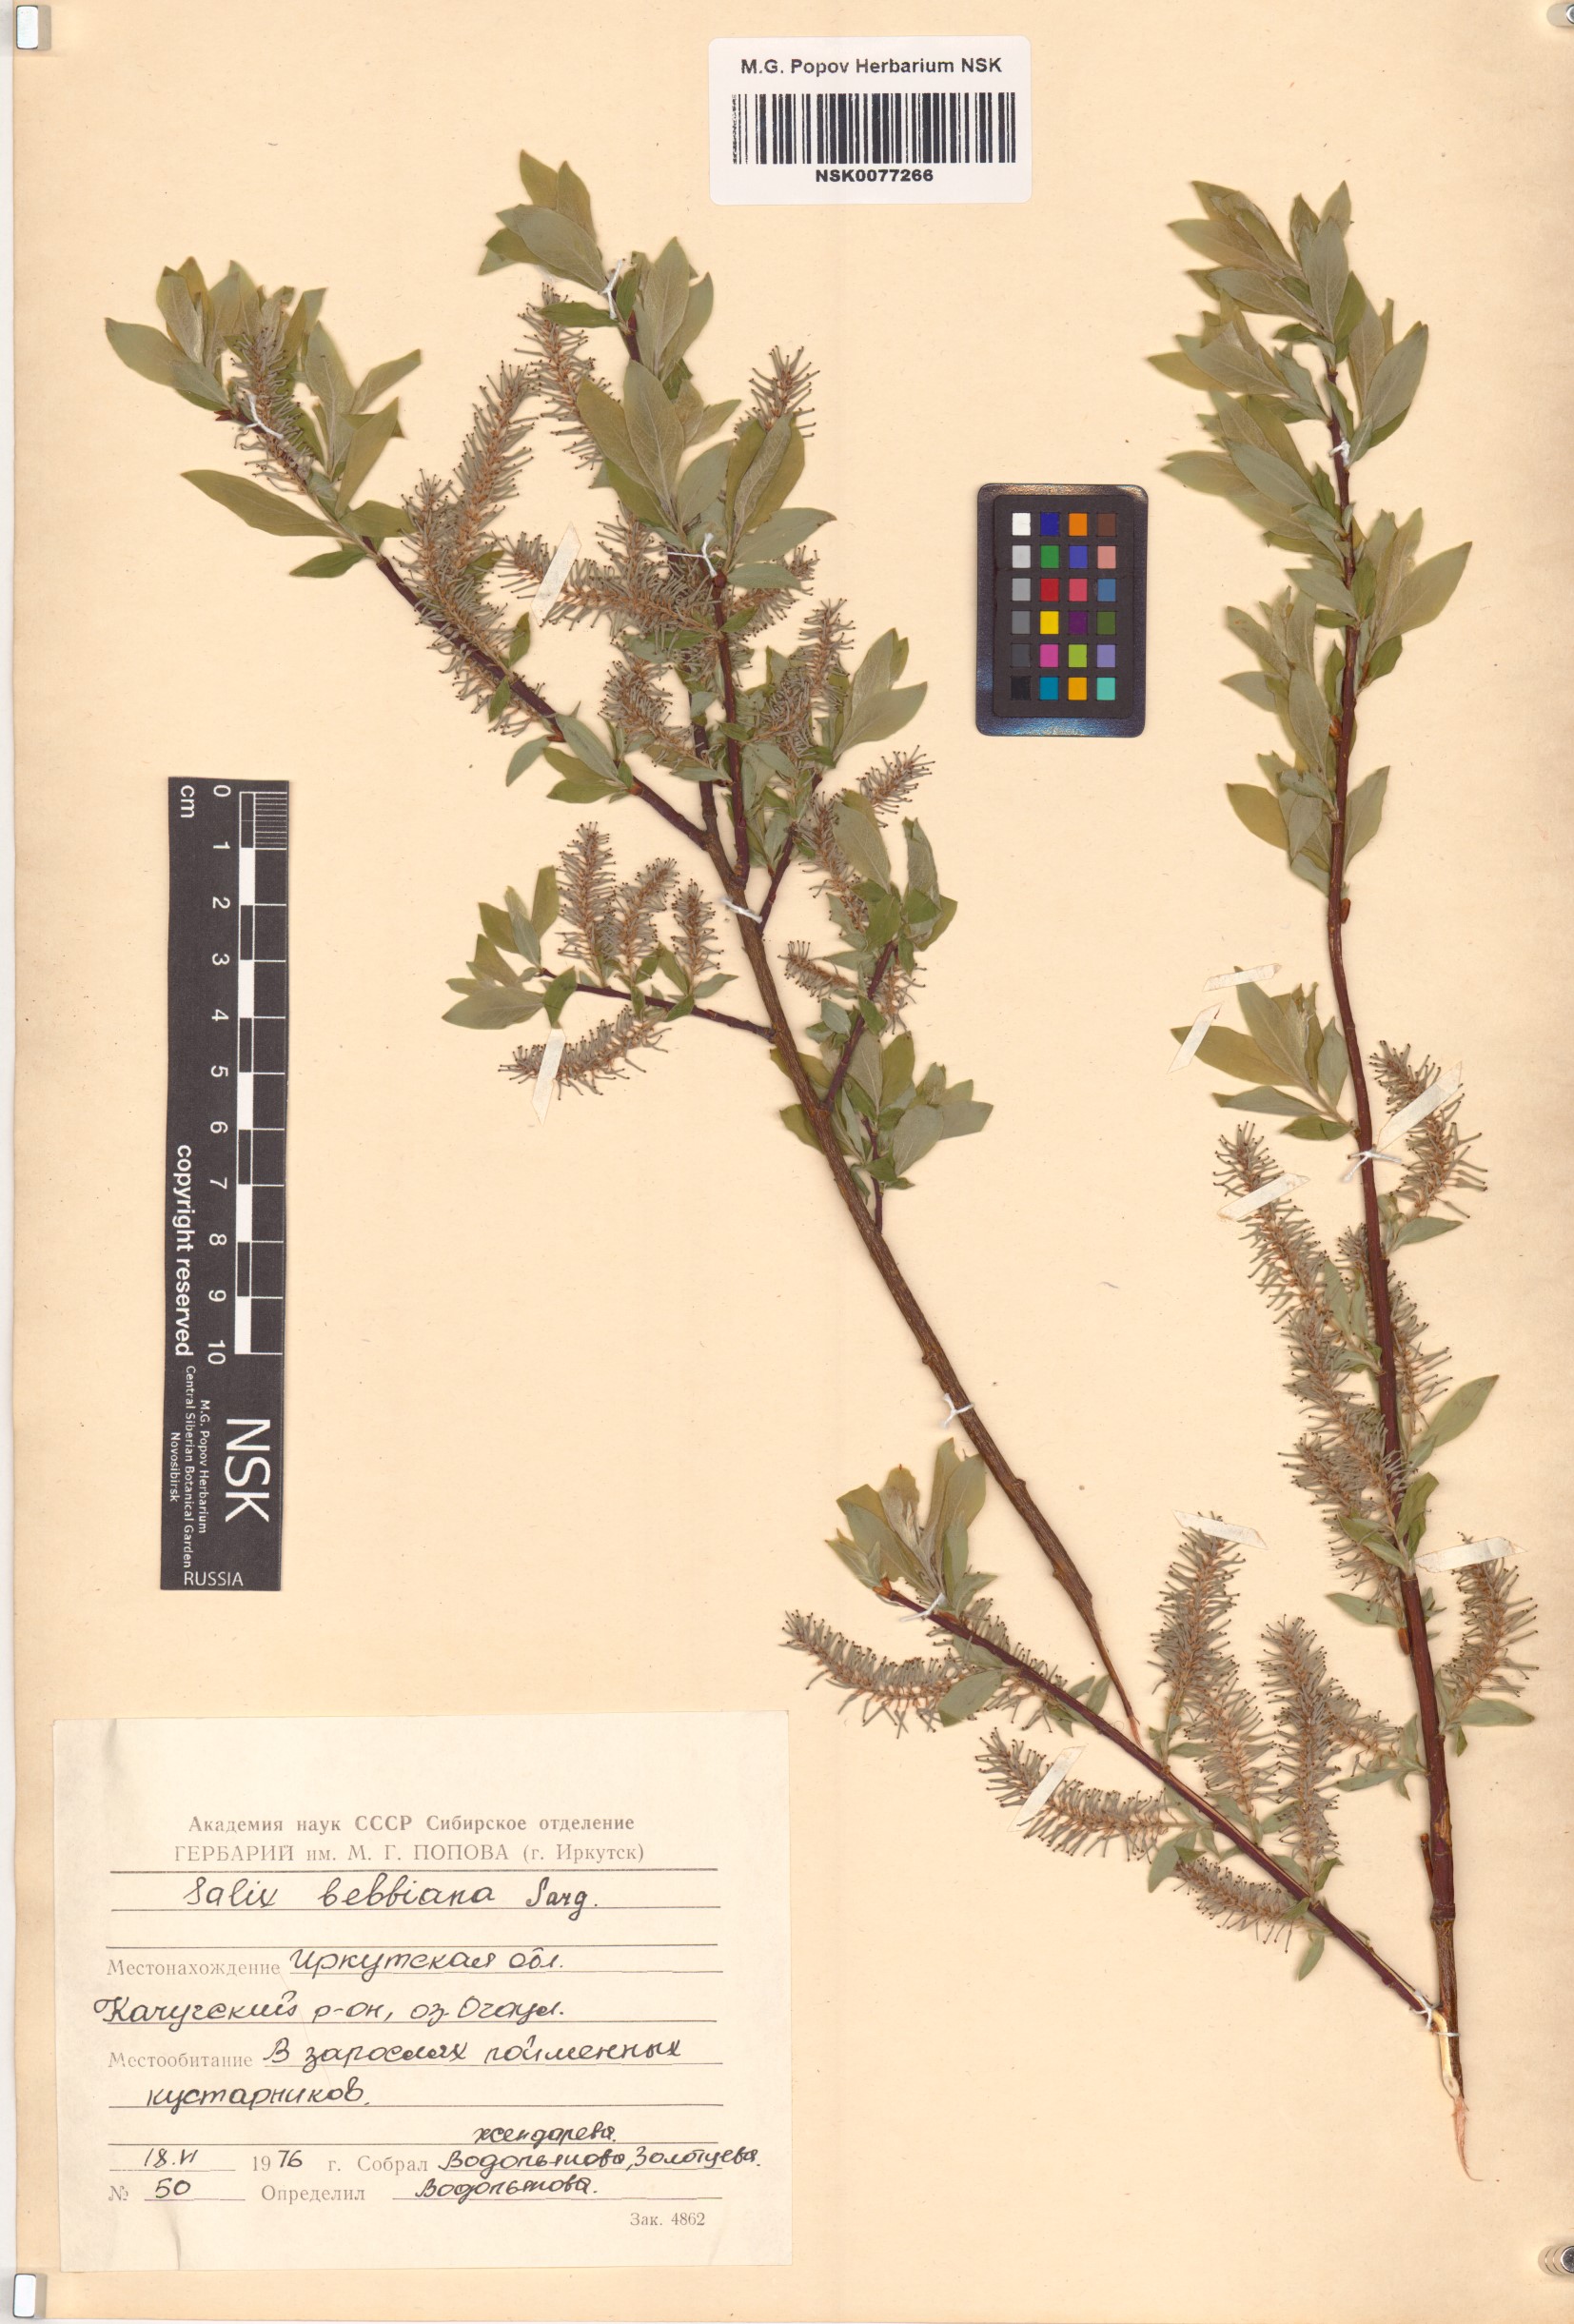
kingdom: Plantae
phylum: Tracheophyta
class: Magnoliopsida
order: Malpighiales
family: Salicaceae
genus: Salix
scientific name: Salix bebbiana
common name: Bebb's willow
